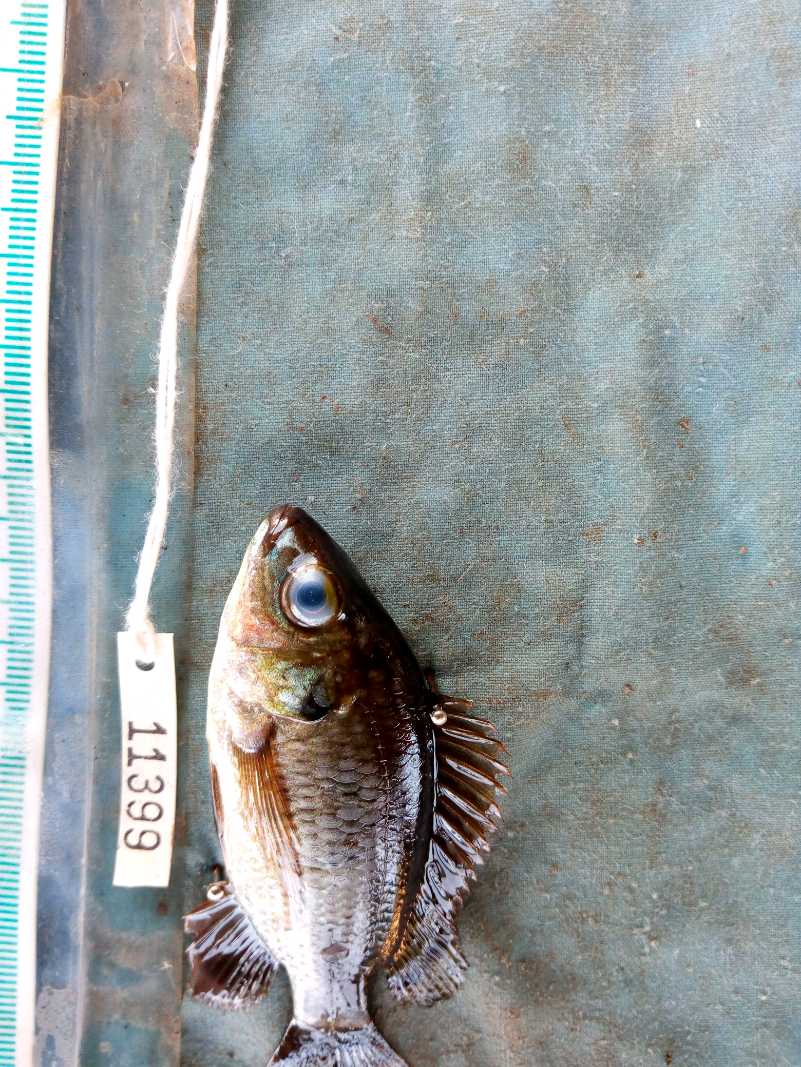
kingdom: Animalia
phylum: Chordata
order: Perciformes
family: Cichlidae
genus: Oreochromis
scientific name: Oreochromis niloticus
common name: Nile tilapia
